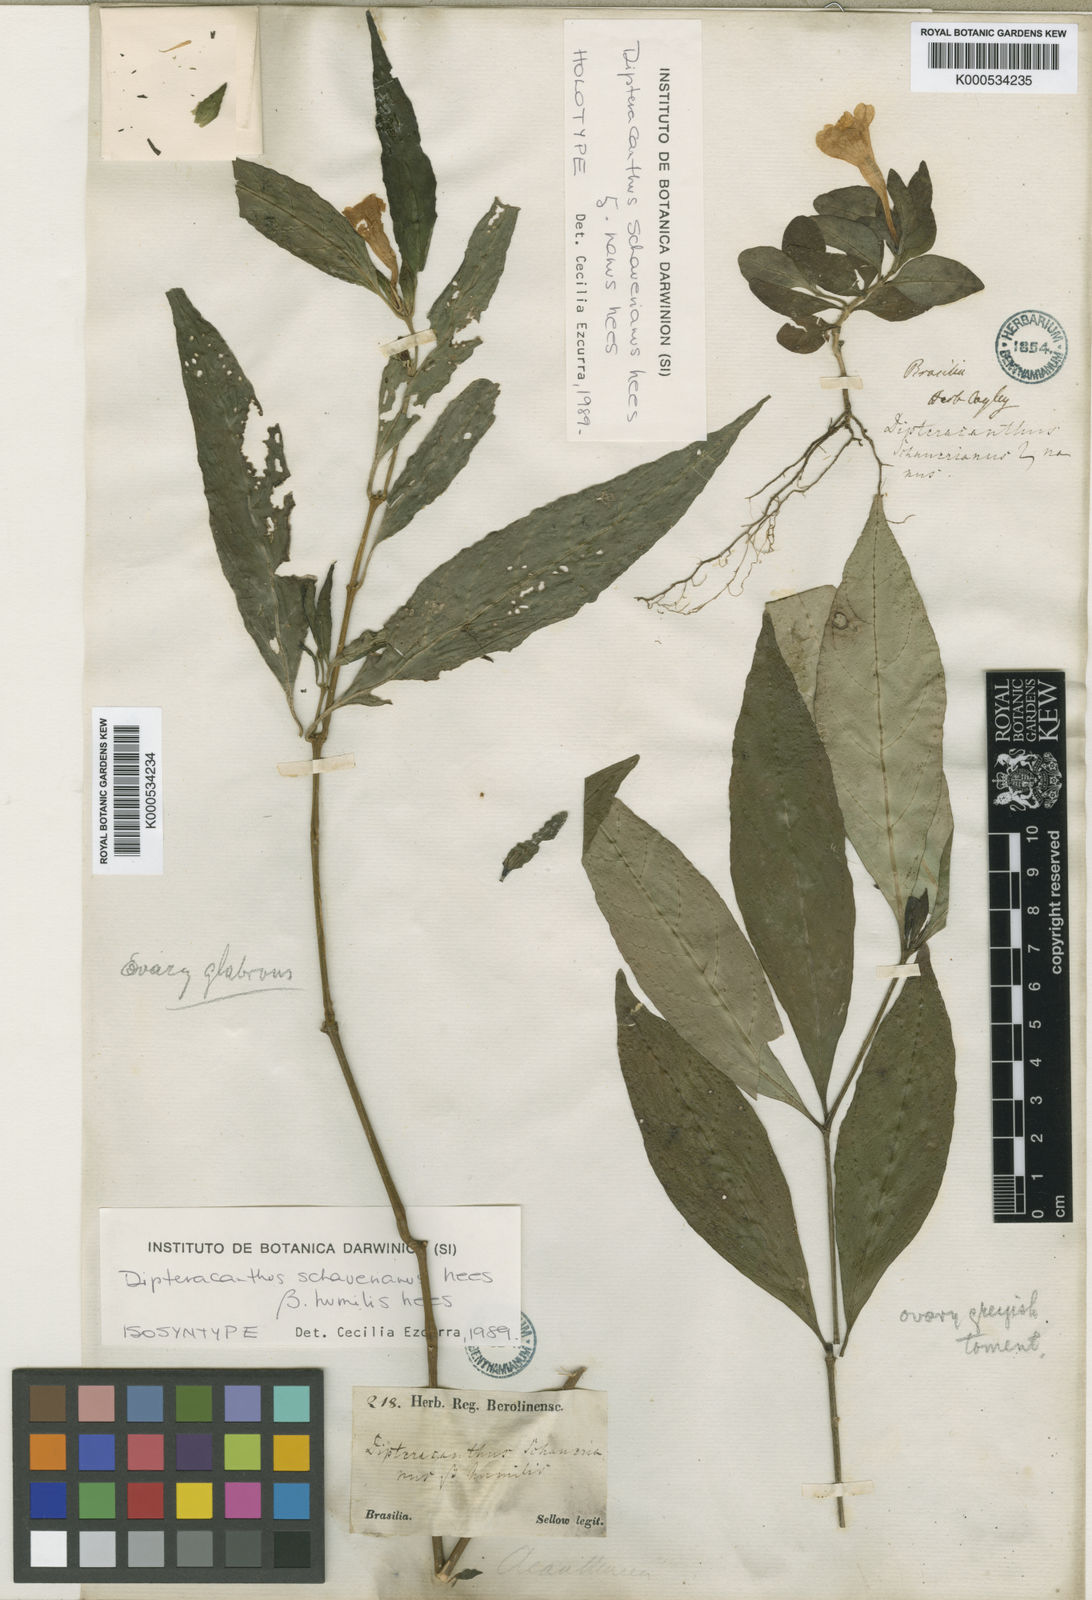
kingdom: Plantae
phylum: Tracheophyta
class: Magnoliopsida
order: Lamiales
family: Acanthaceae
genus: Ruellia
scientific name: Ruellia
